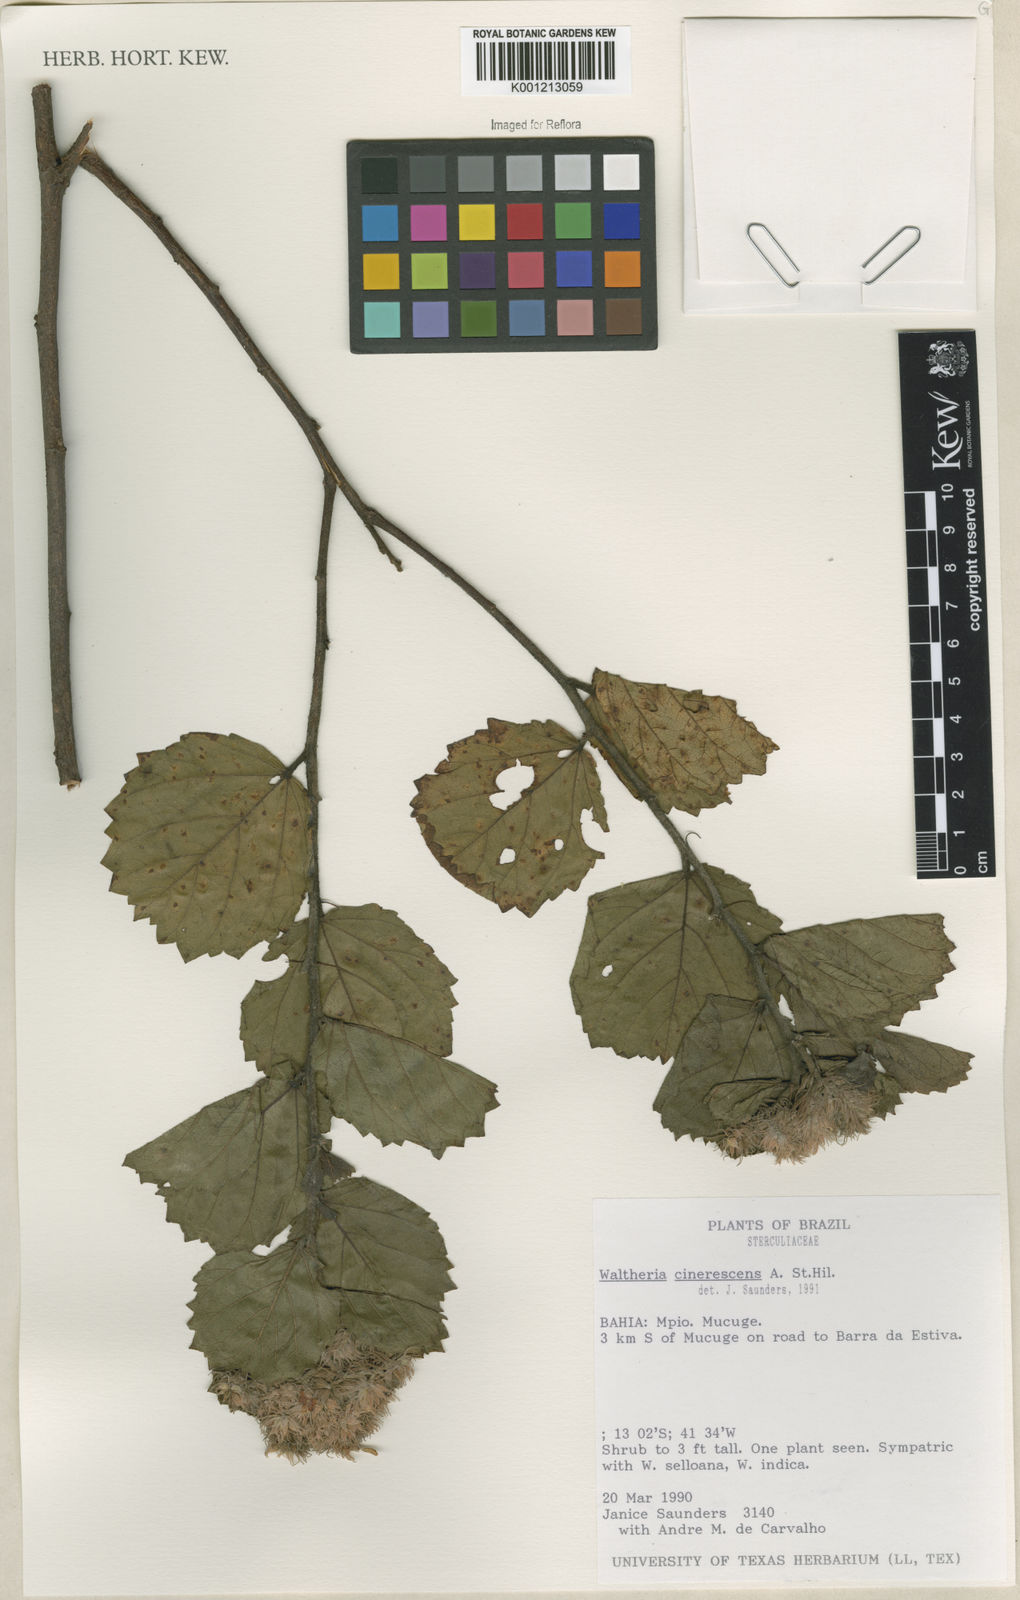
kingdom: Plantae
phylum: Tracheophyta
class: Magnoliopsida
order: Malvales
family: Malvaceae
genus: Waltheria
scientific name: Waltheria cinerescens
